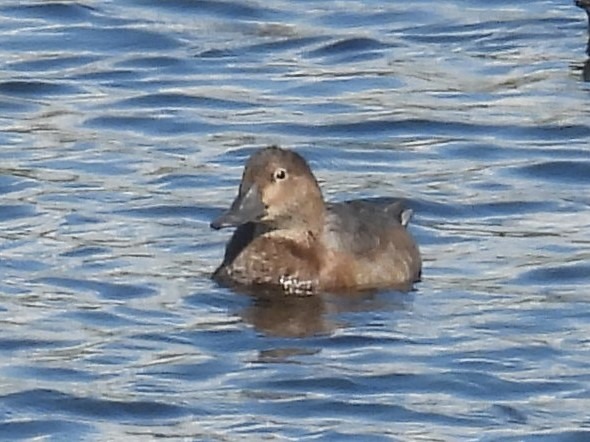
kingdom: Animalia
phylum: Chordata
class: Aves
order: Anseriformes
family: Anatidae
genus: Aythya
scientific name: Aythya ferina
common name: Taffeland
